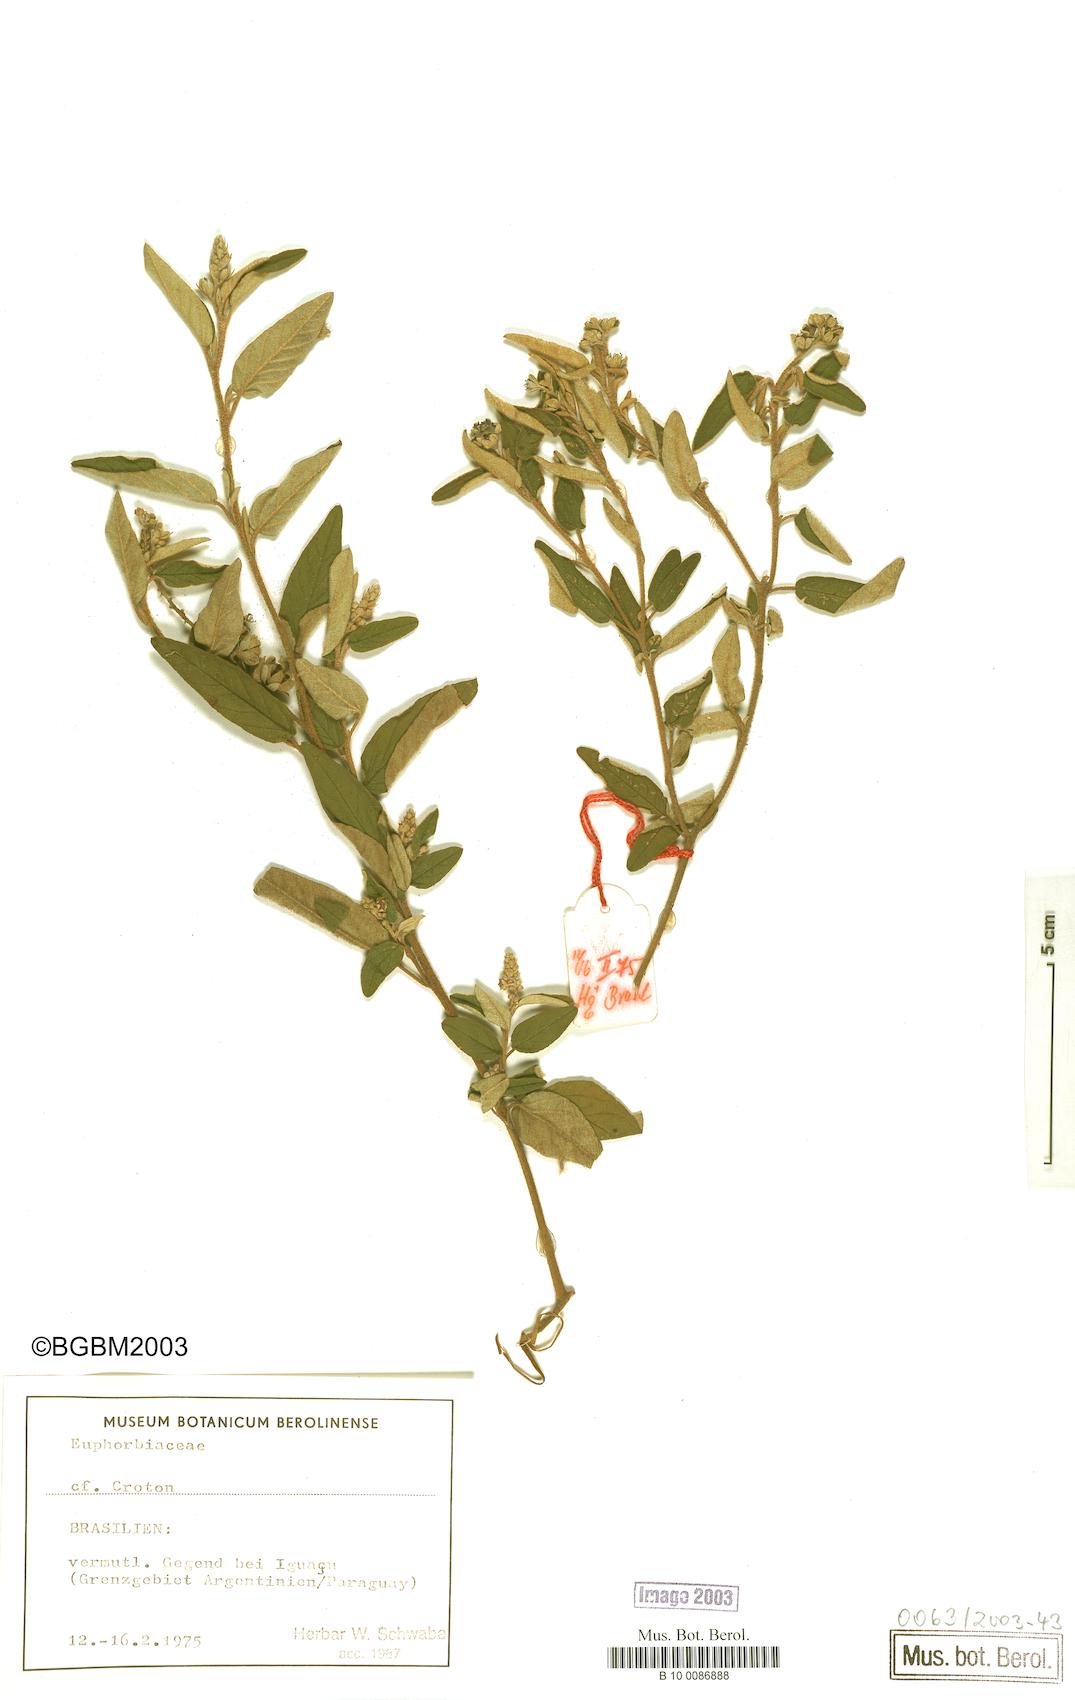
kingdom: Plantae
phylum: Tracheophyta
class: Magnoliopsida
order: Malpighiales
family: Euphorbiaceae
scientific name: Euphorbiaceae
